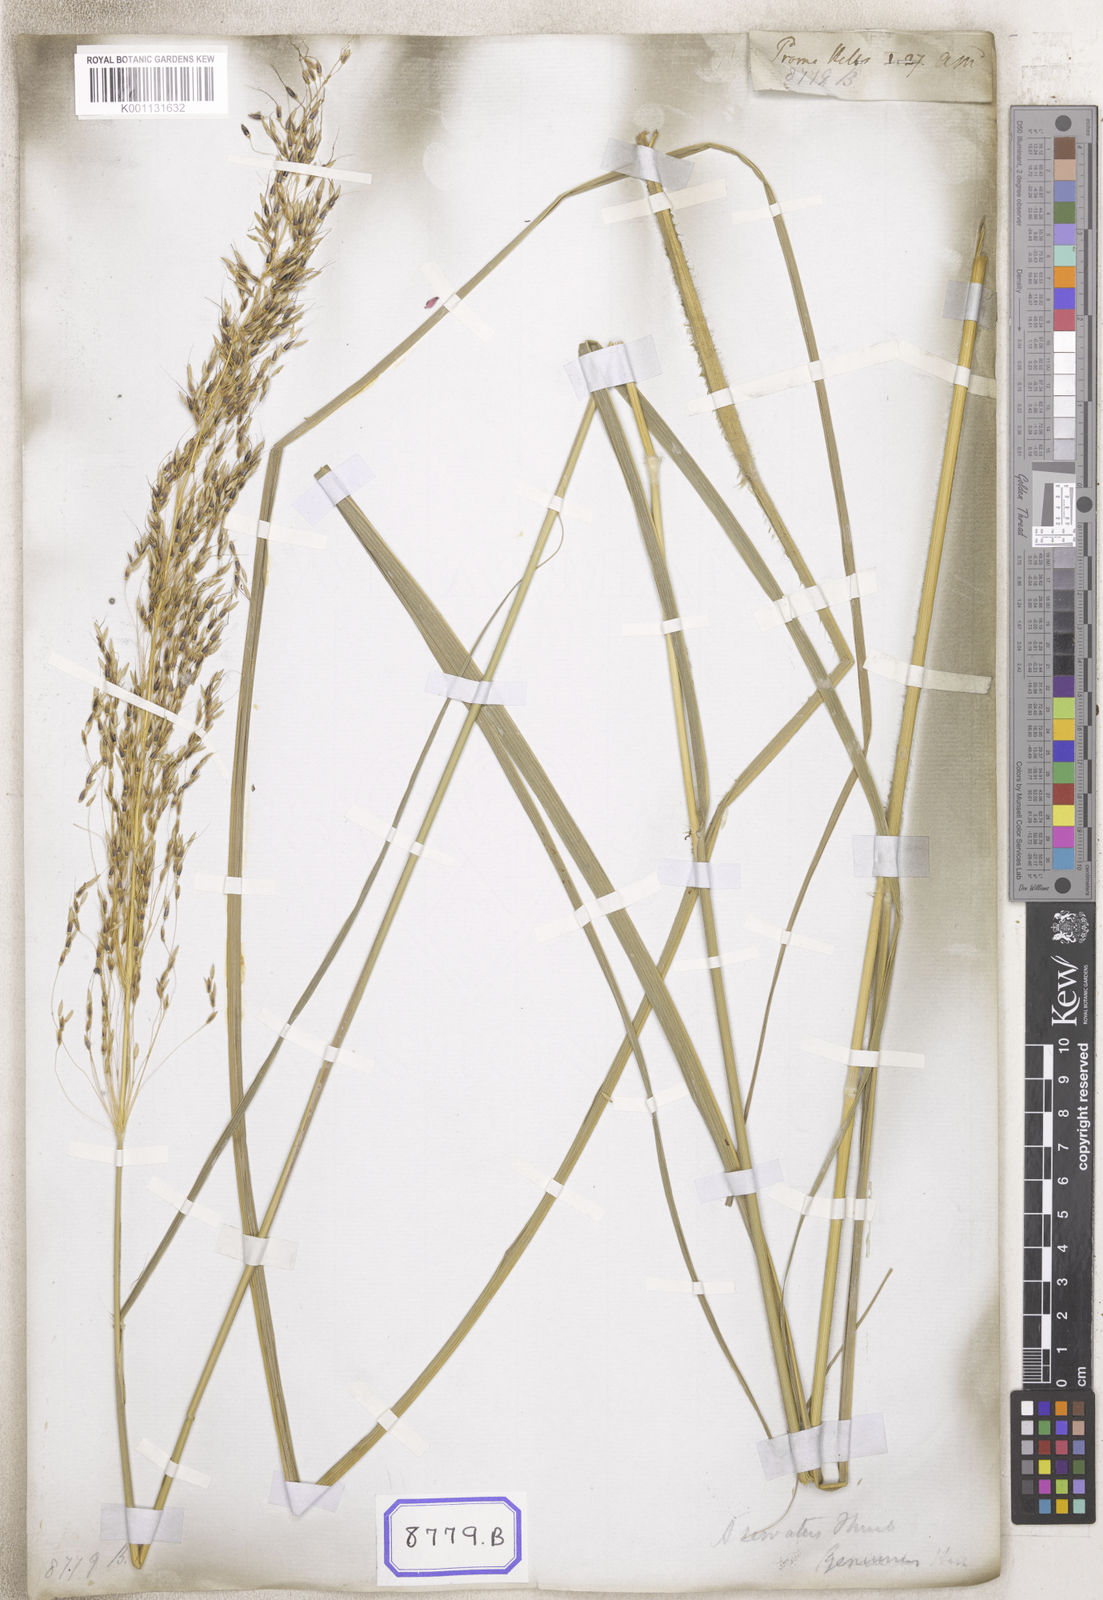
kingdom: Plantae
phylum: Tracheophyta
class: Liliopsida
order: Poales
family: Poaceae
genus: Sorghum
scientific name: Sorghum
